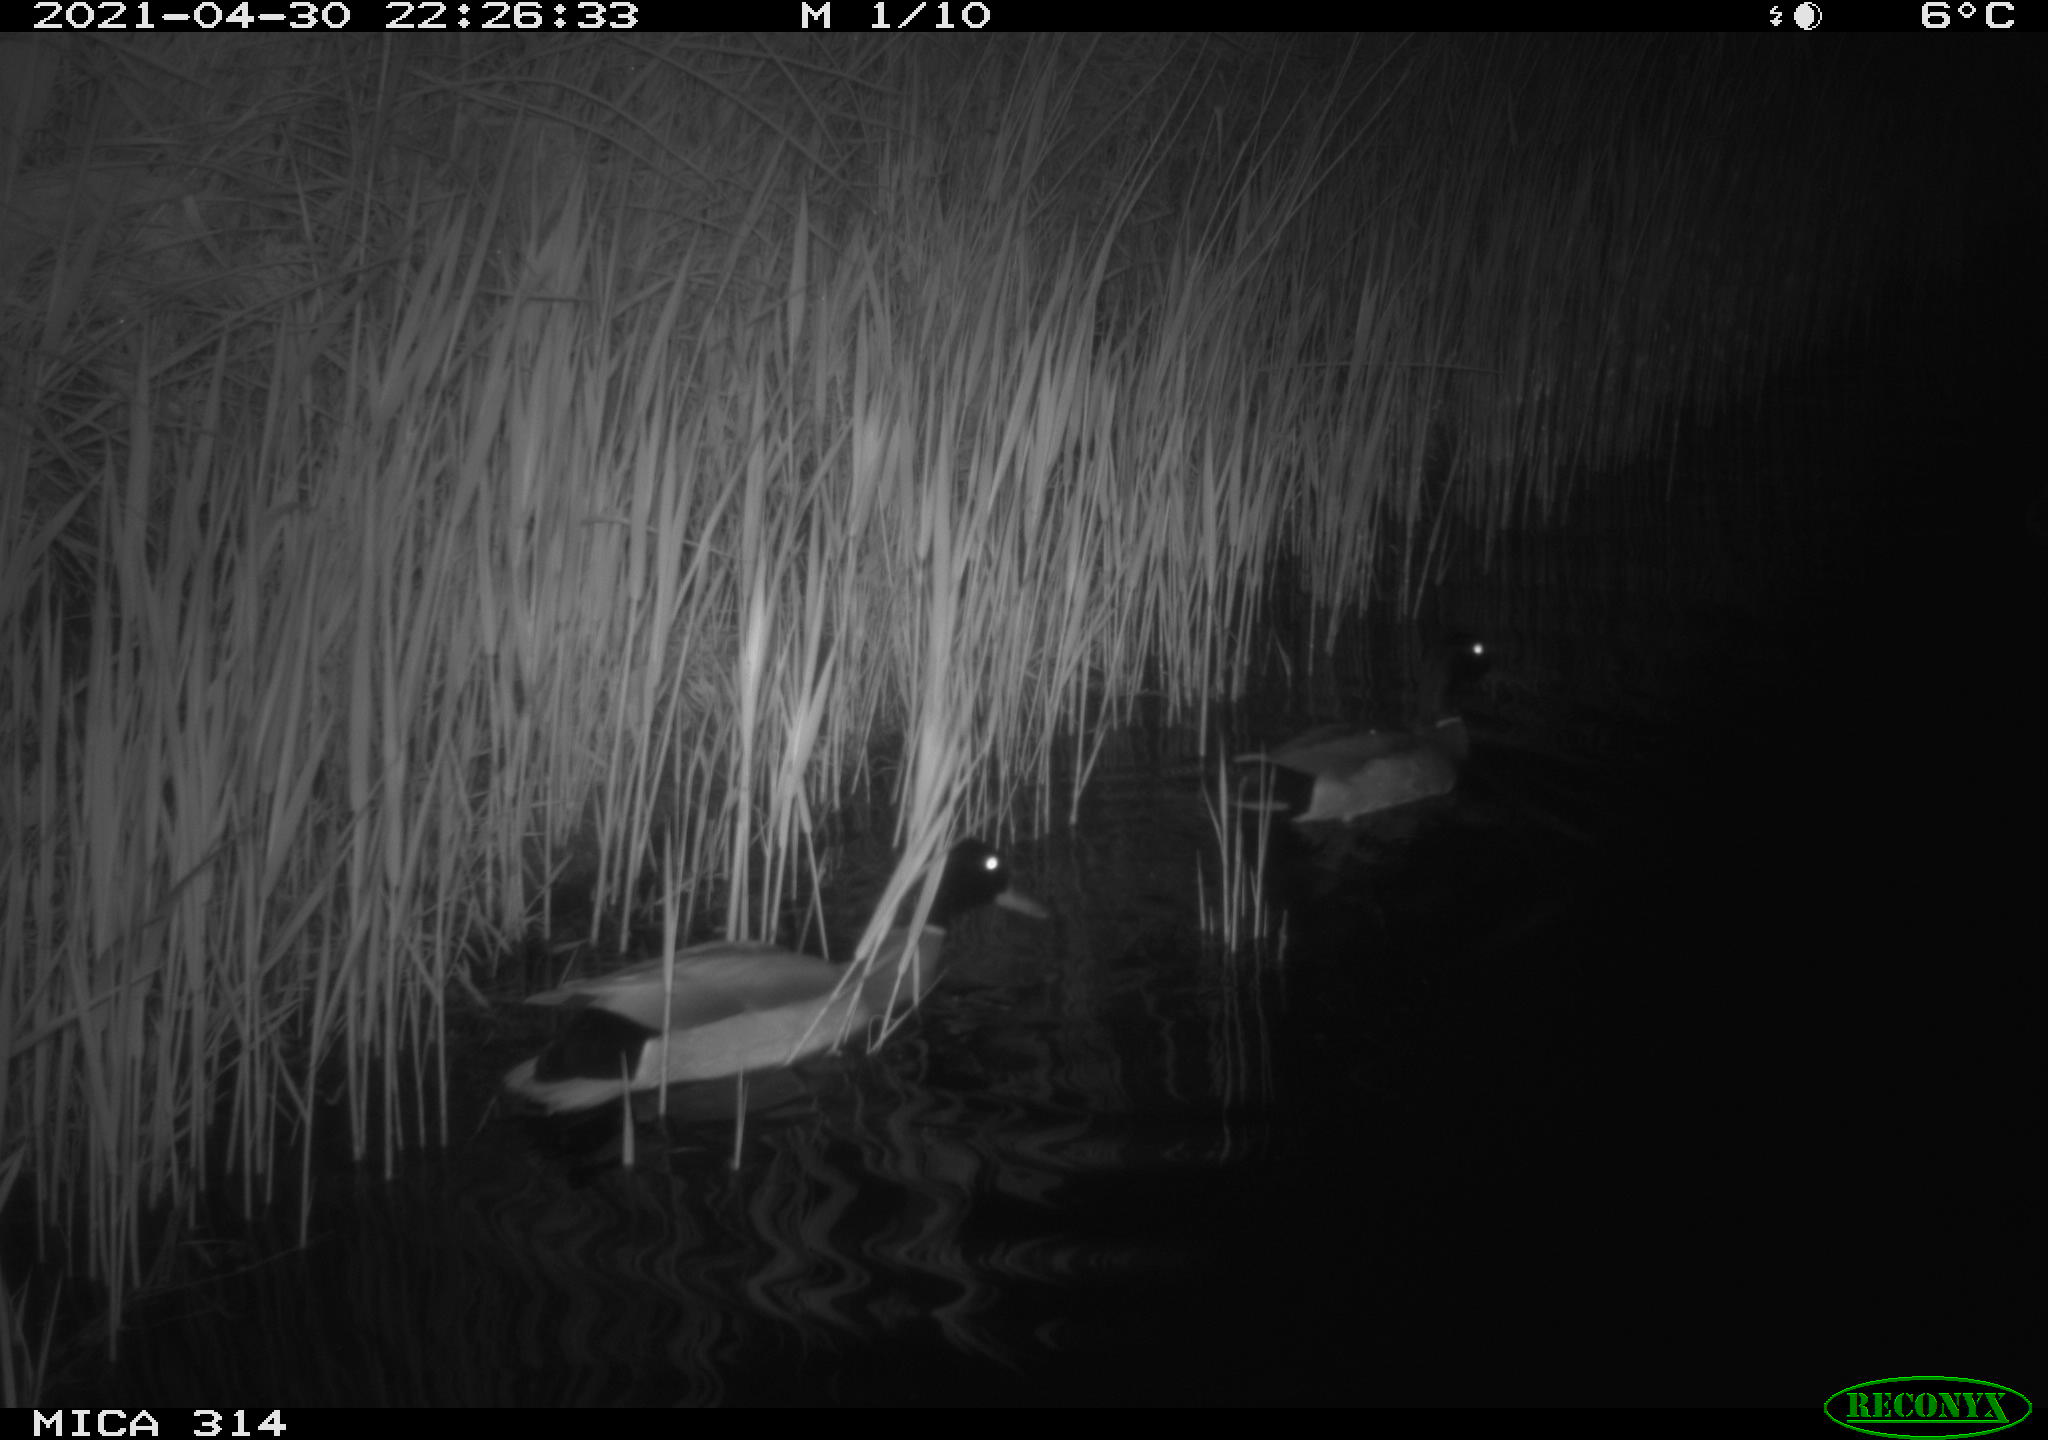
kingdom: Animalia
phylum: Chordata
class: Aves
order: Anseriformes
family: Anatidae
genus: Anas
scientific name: Anas platyrhynchos
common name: Mallard
